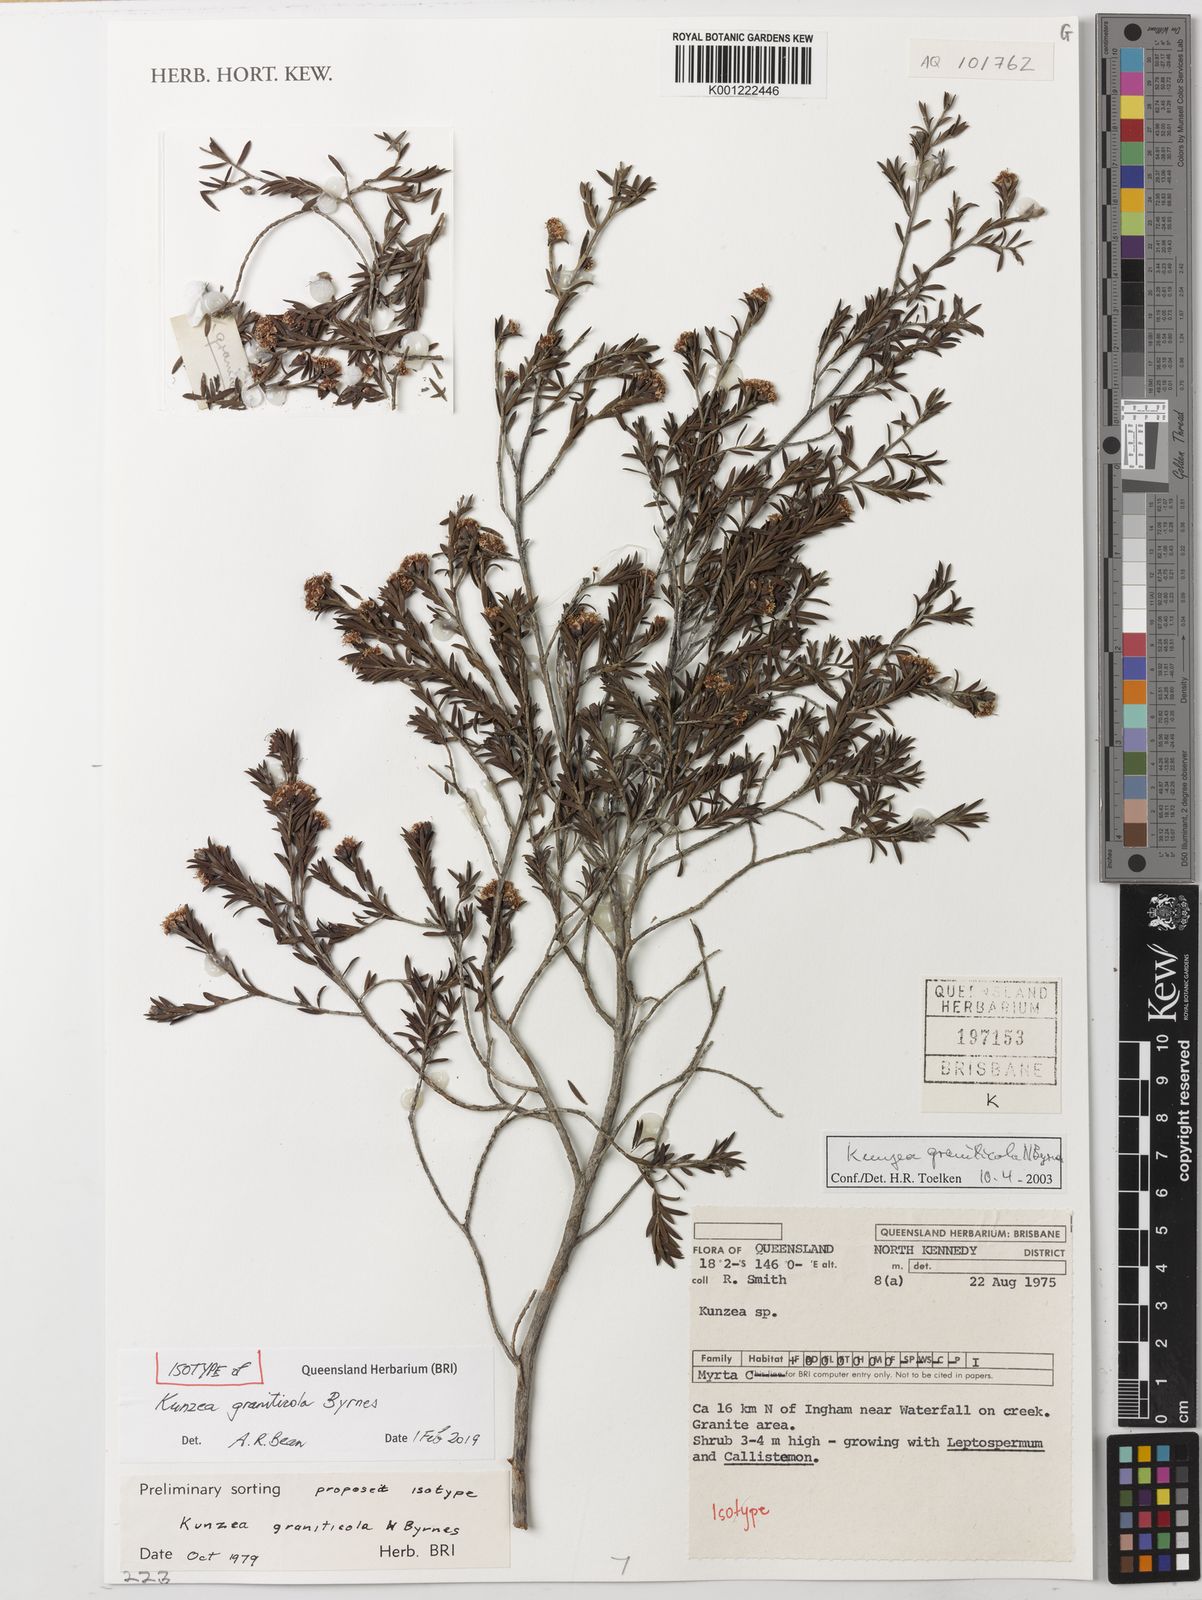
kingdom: Plantae
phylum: Tracheophyta
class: Magnoliopsida
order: Myrtales
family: Myrtaceae
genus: Kunzea
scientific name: Kunzea graniticola
